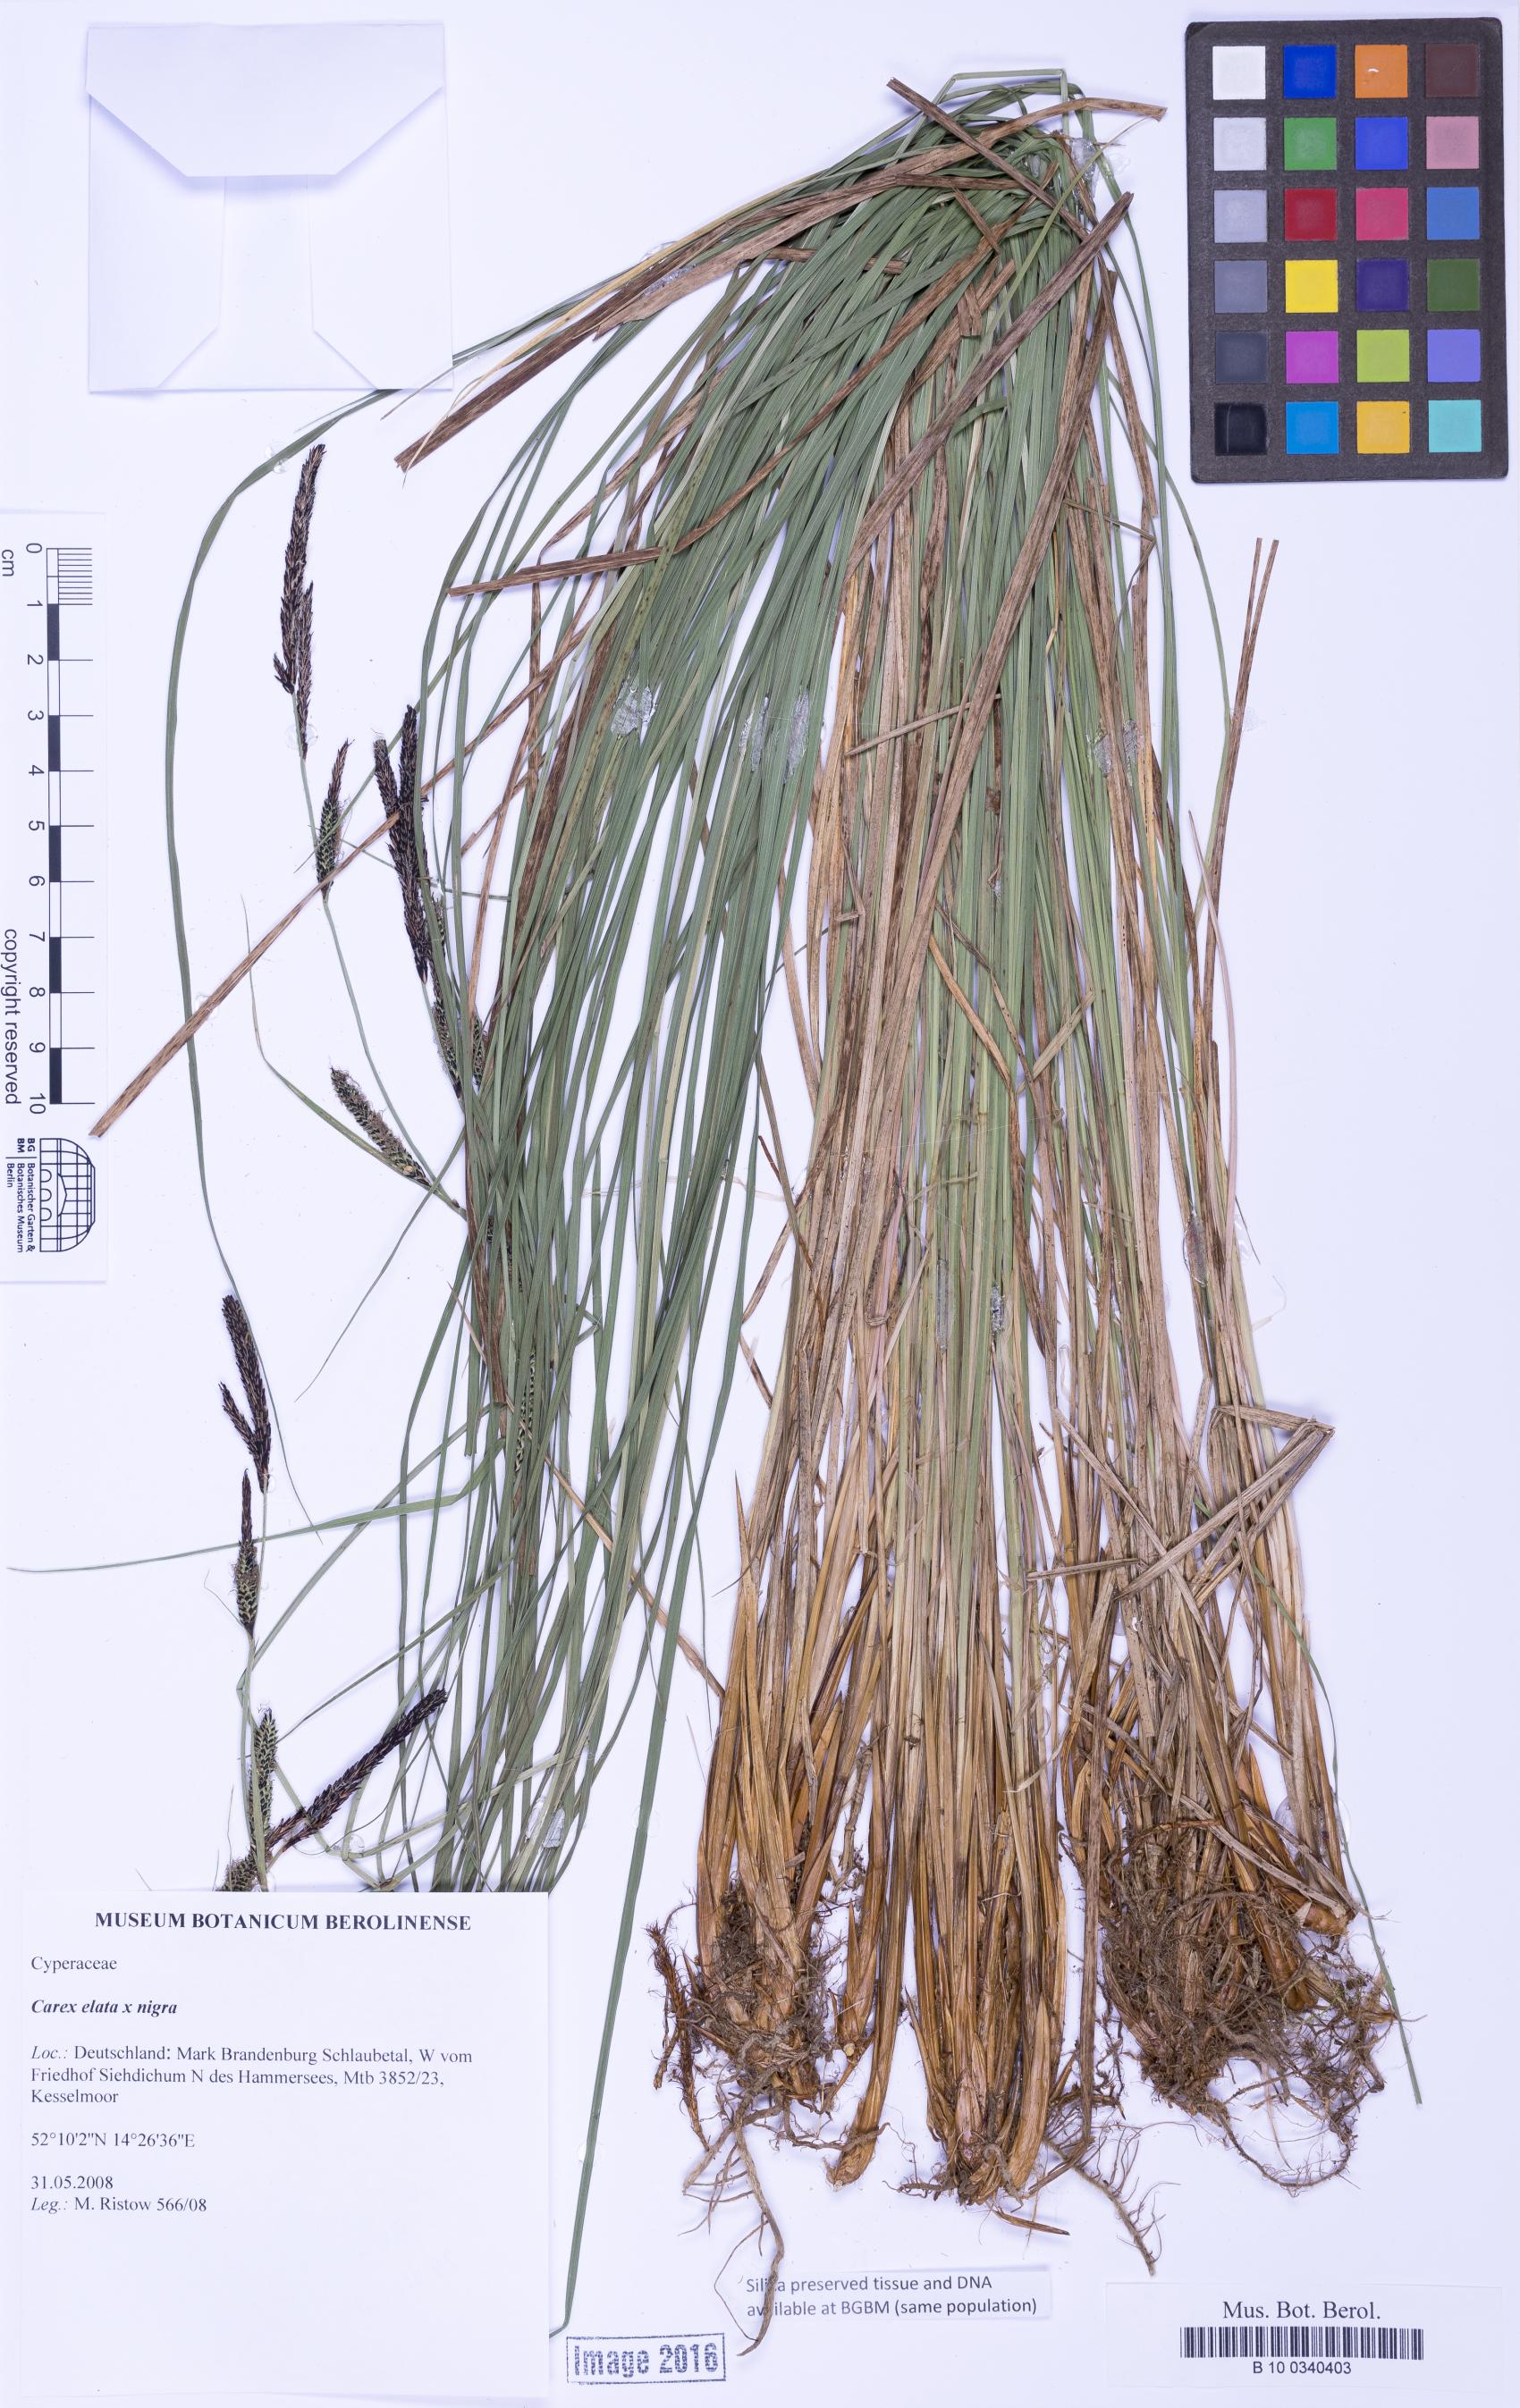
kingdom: Plantae
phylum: Tracheophyta
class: Liliopsida
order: Poales
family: Cyperaceae
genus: Carex
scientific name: Carex
